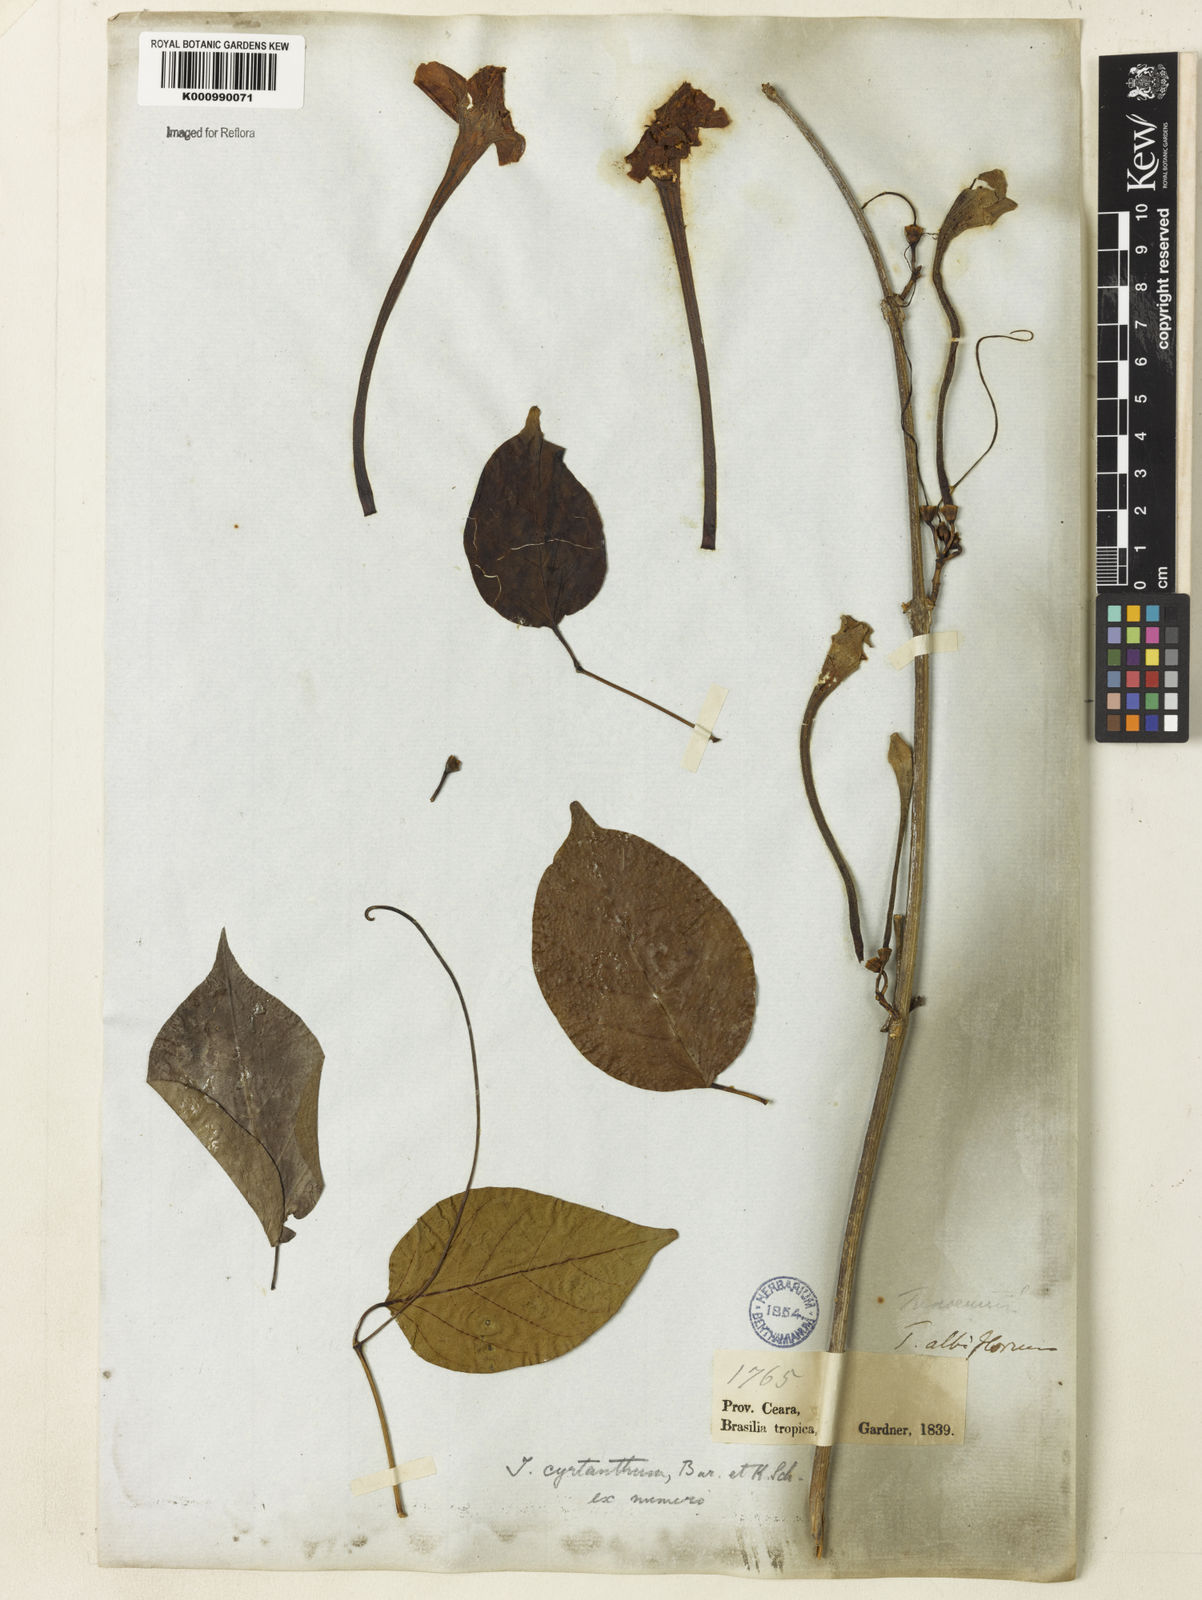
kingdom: Plantae
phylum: Tracheophyta
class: Magnoliopsida
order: Lamiales
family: Bignoniaceae
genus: Tanaecium
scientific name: Tanaecium cyrtanthum
